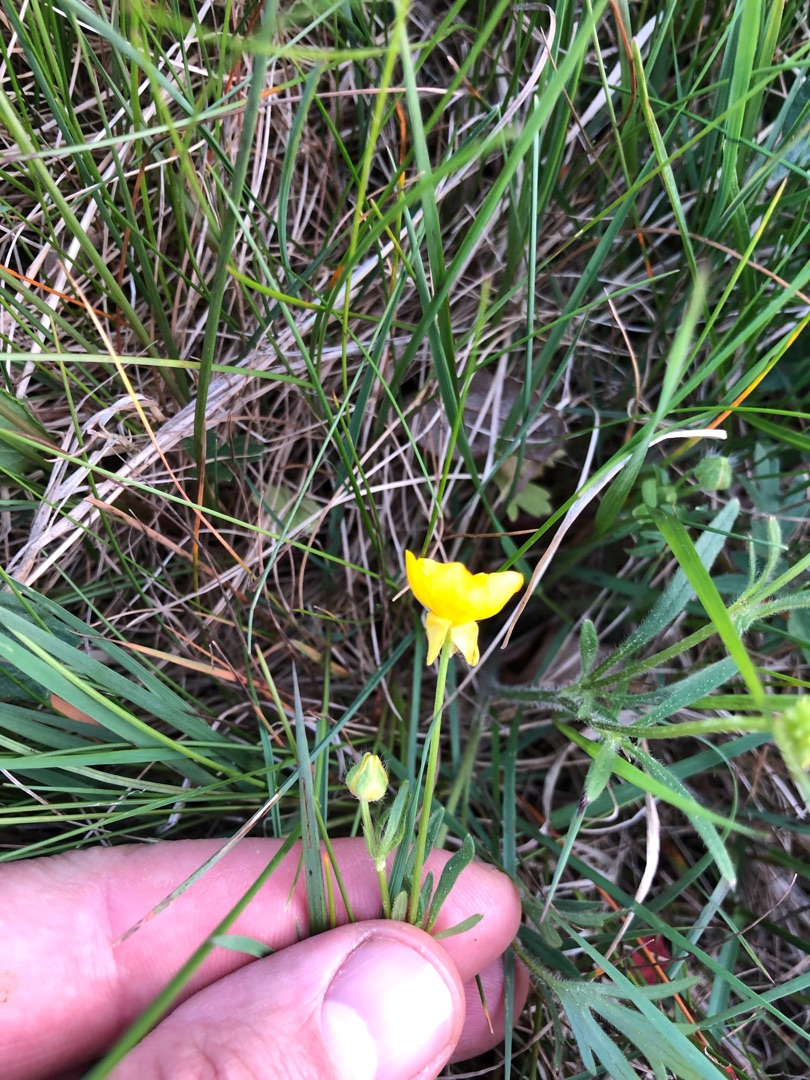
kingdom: Plantae
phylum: Tracheophyta
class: Magnoliopsida
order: Ranunculales
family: Ranunculaceae
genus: Ranunculus
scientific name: Ranunculus bulbosus
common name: Knold-ranunkel
